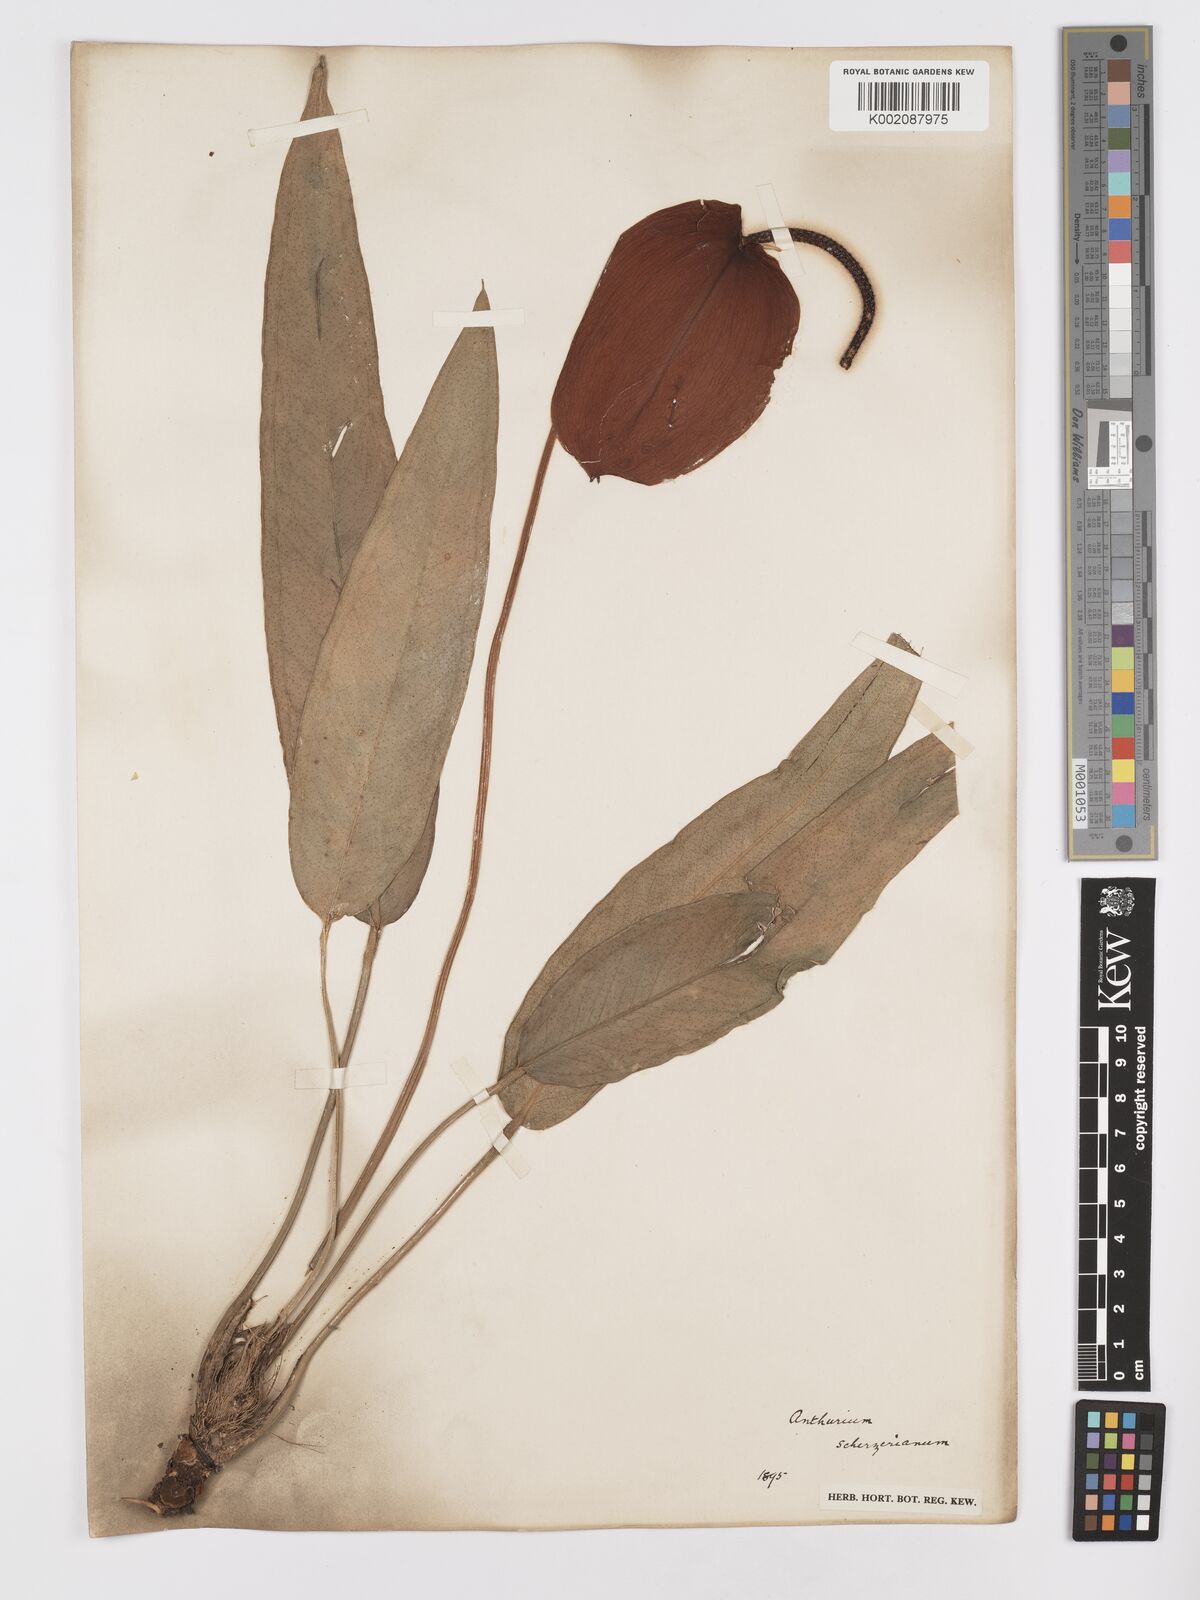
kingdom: Plantae
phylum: Tracheophyta
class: Liliopsida
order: Alismatales
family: Araceae
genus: Anthurium
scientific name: Anthurium scherzerianum
